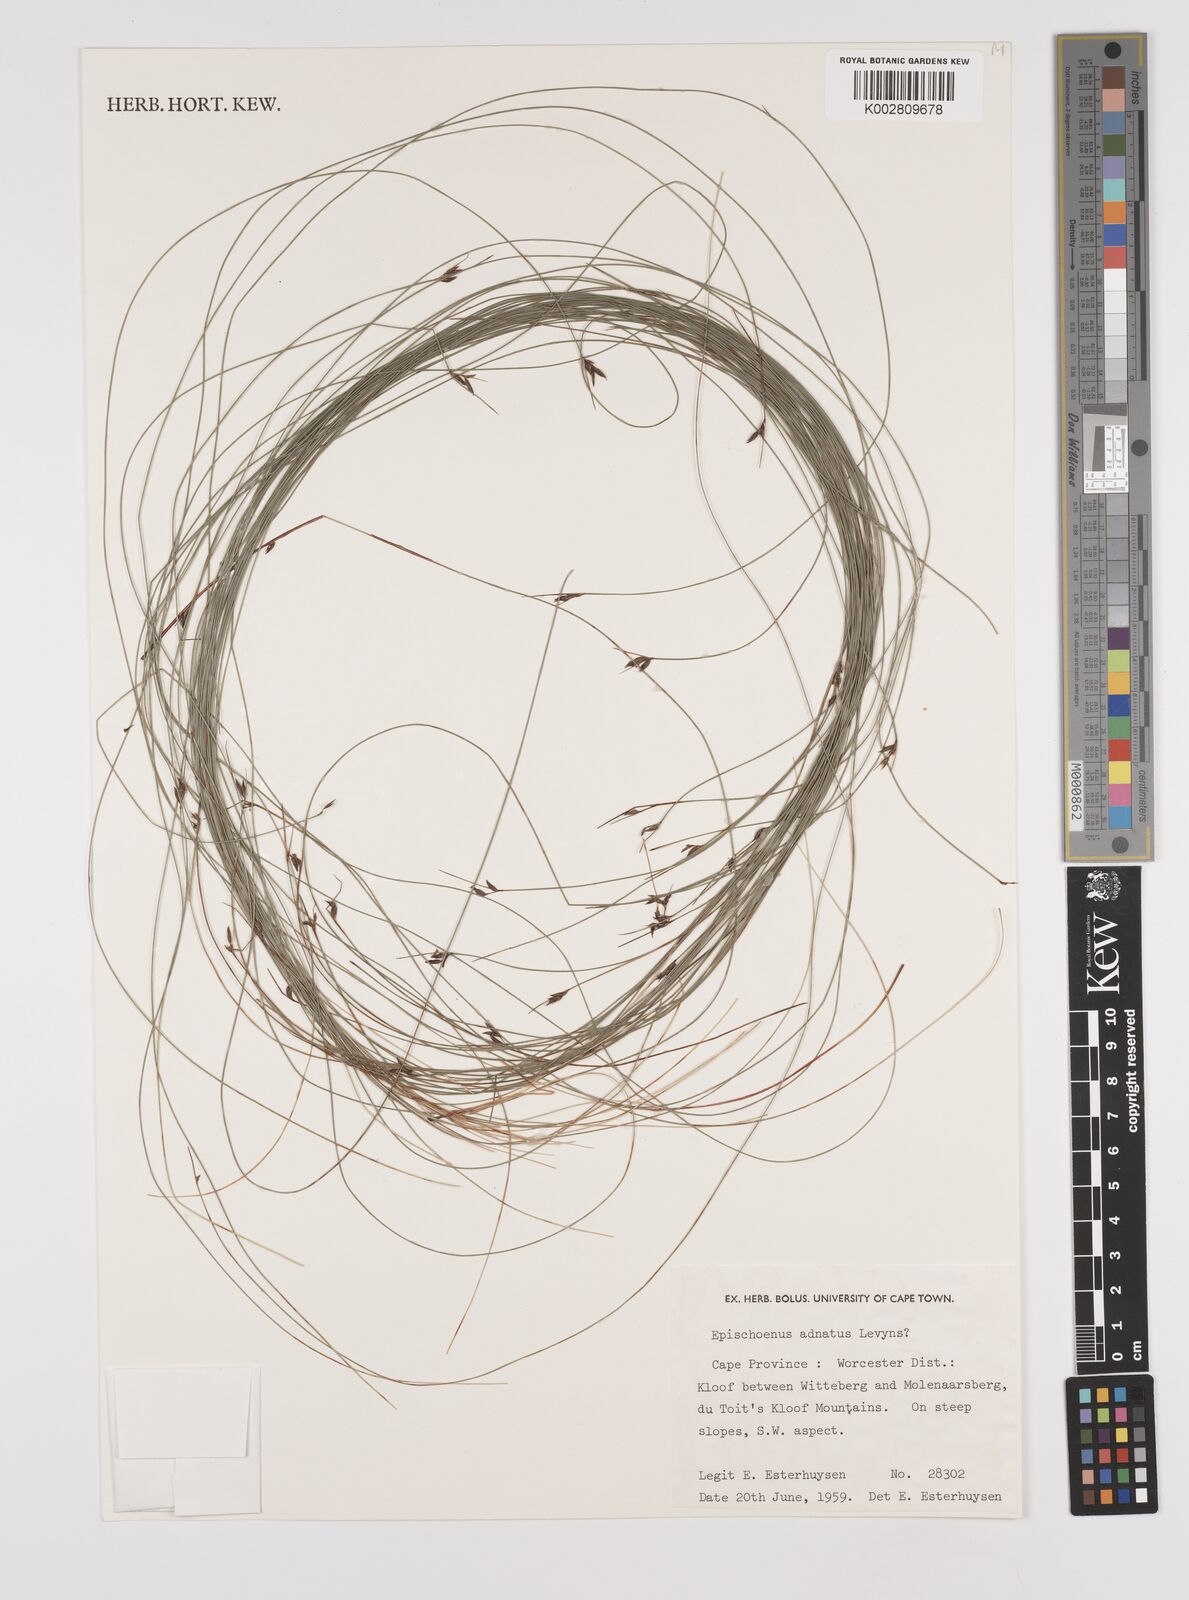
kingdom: Plantae
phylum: Tracheophyta
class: Liliopsida
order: Poales
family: Cyperaceae
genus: Schoenus
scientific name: Schoenus adnatus
